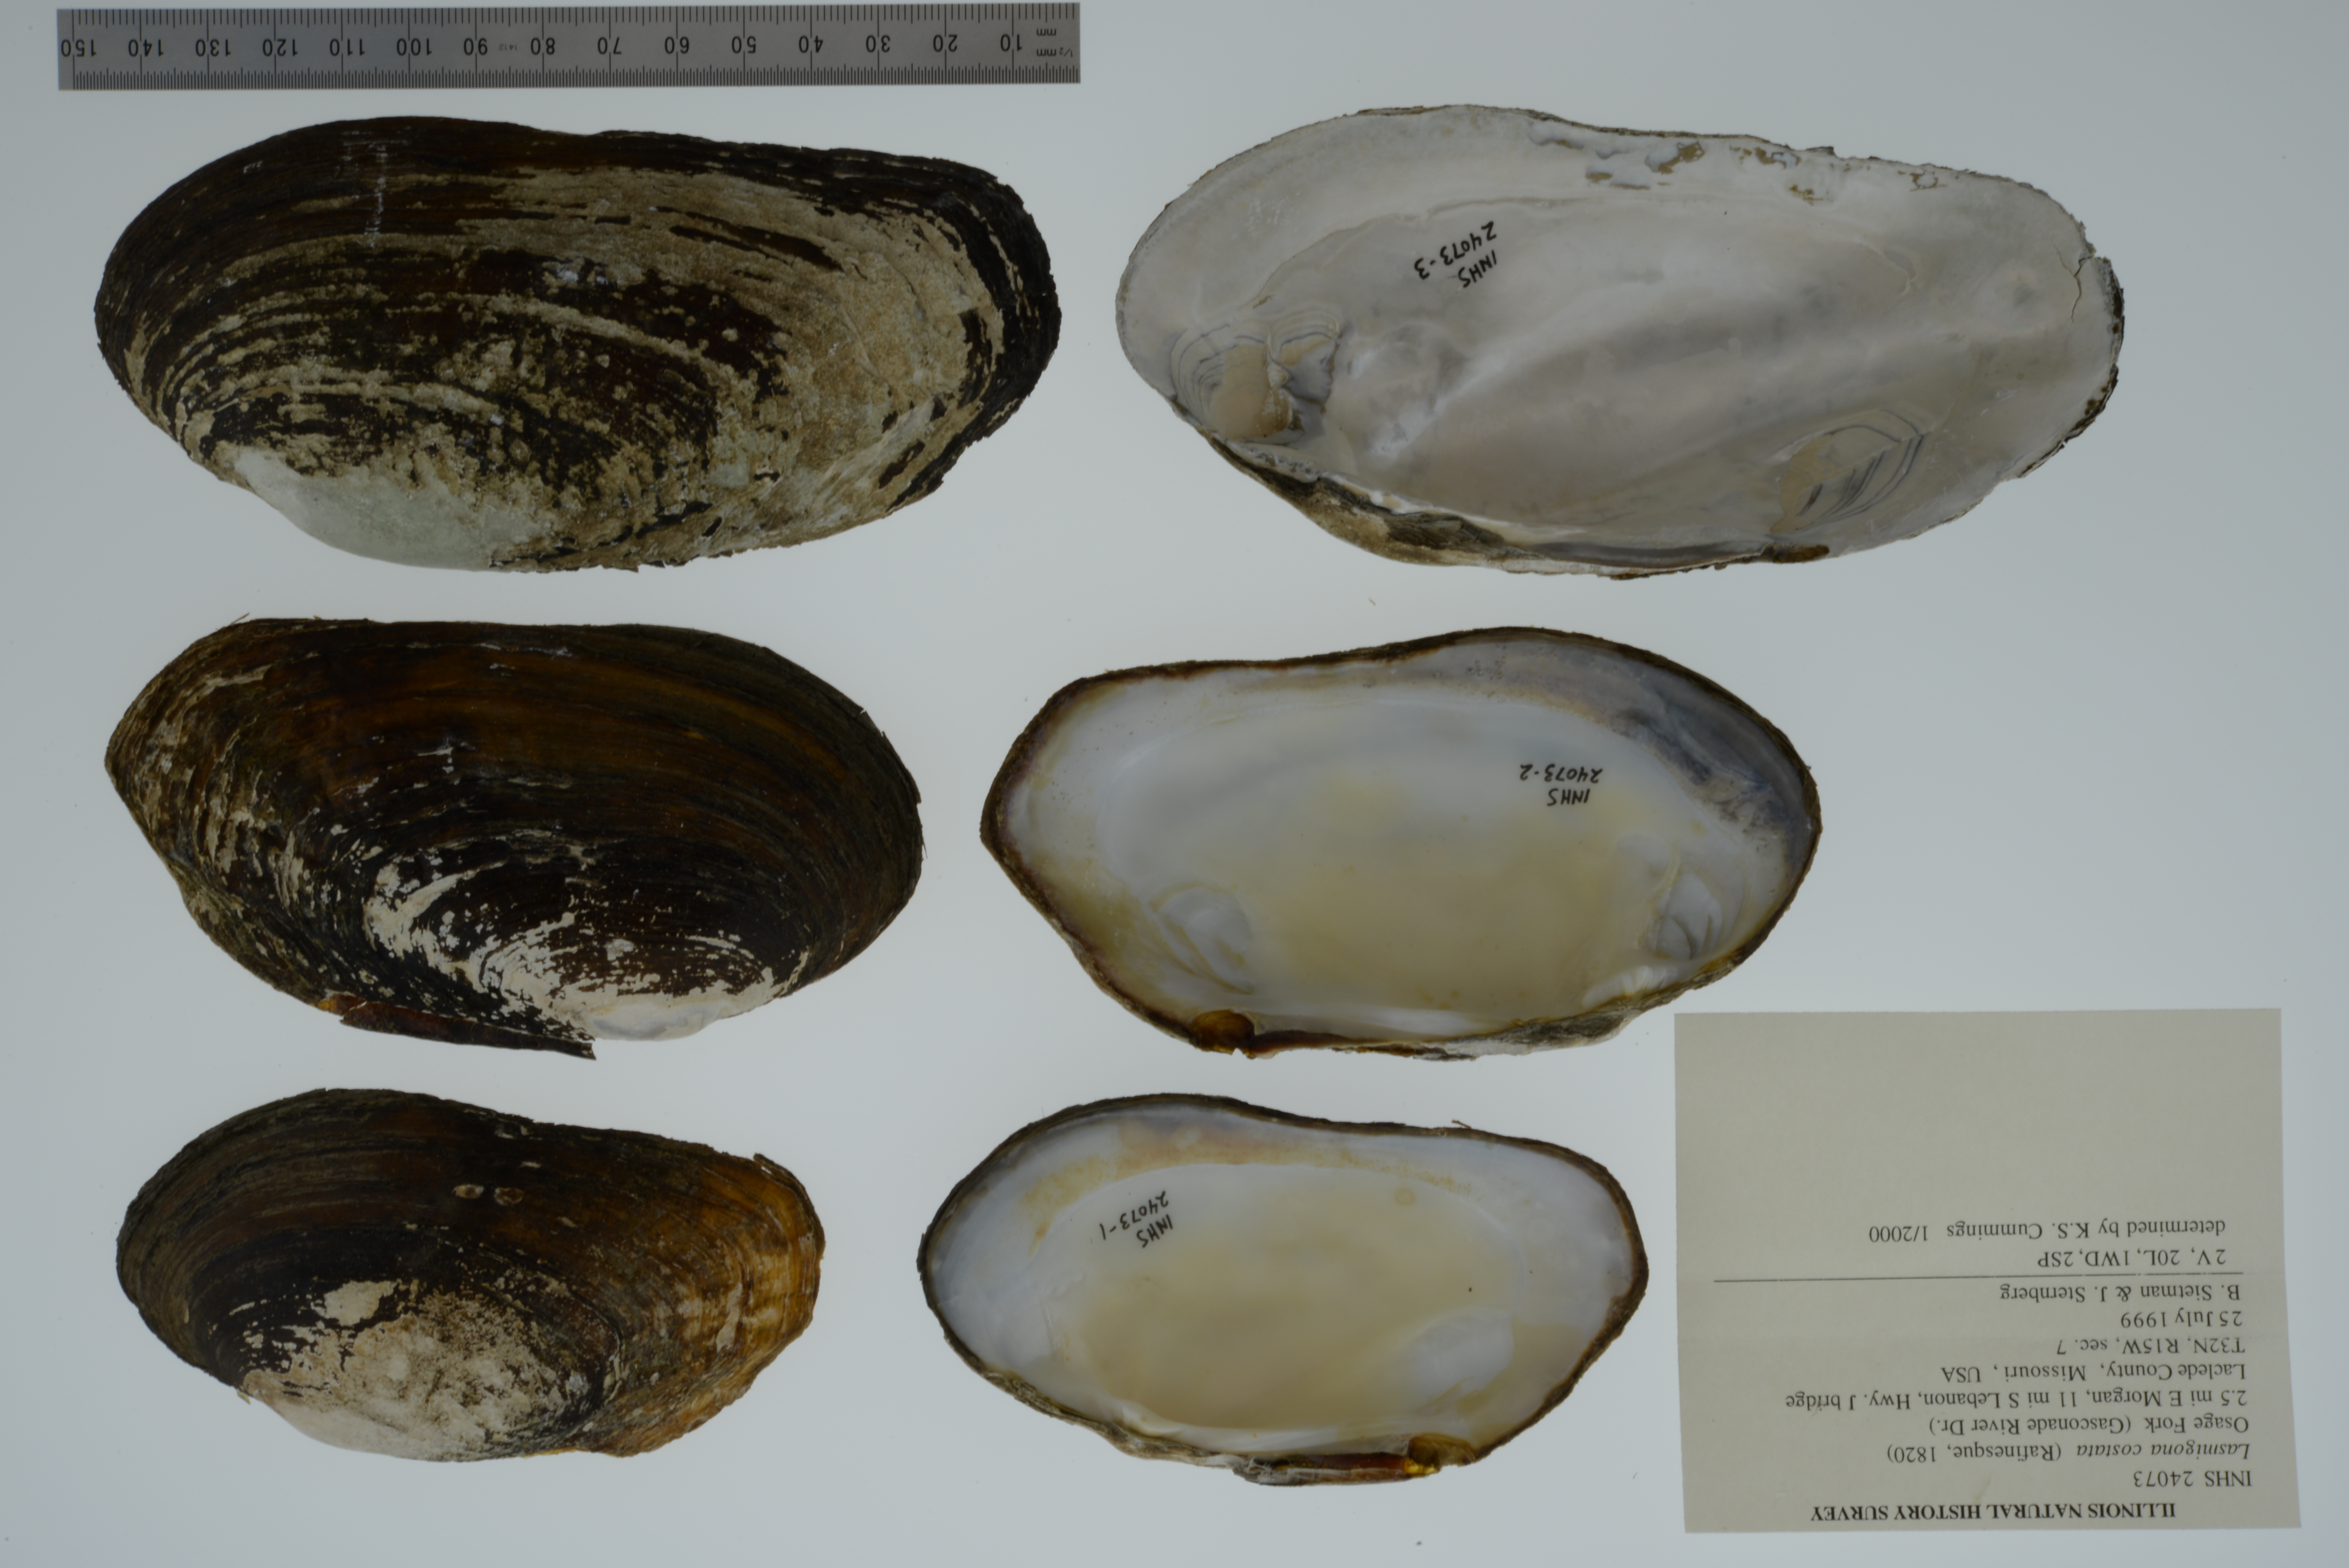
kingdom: Animalia
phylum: Mollusca
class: Bivalvia
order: Unionida
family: Unionidae
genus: Lasmigona
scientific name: Lasmigona costata
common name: Flutedshell
